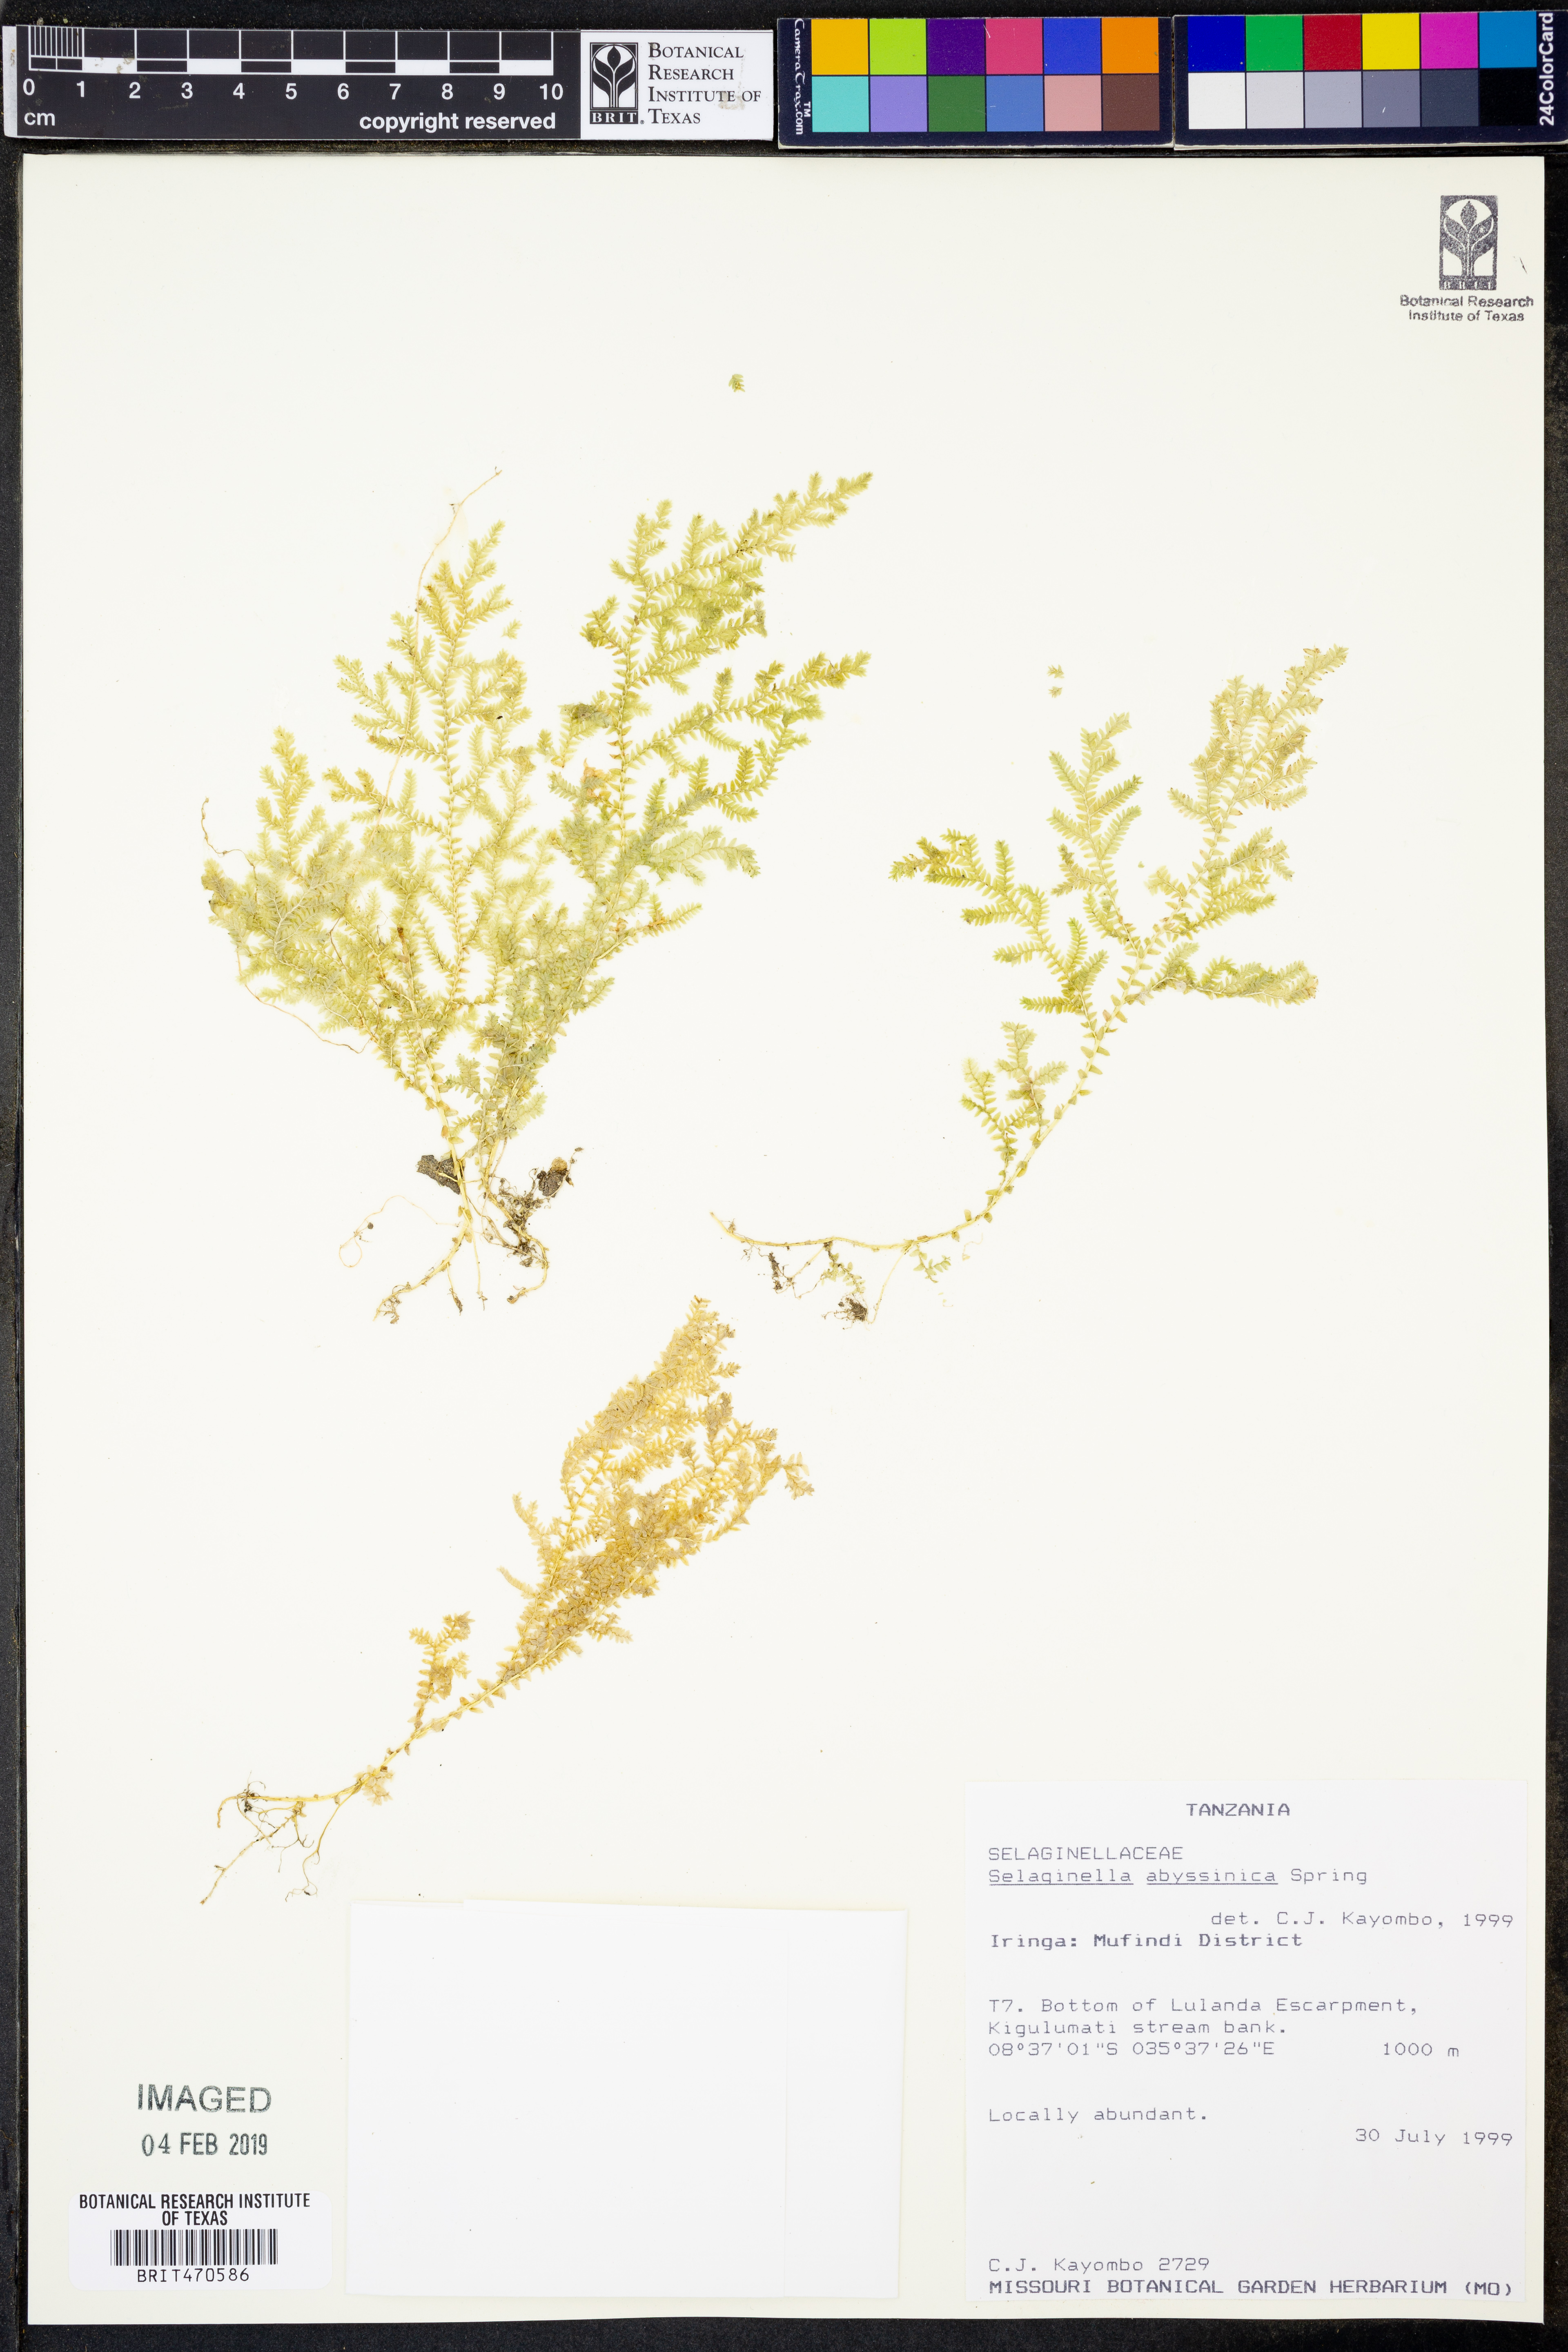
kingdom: Plantae
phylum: Tracheophyta
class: Lycopodiopsida
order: Selaginellales
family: Selaginellaceae
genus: Selaginella
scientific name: Selaginella goudotiana
